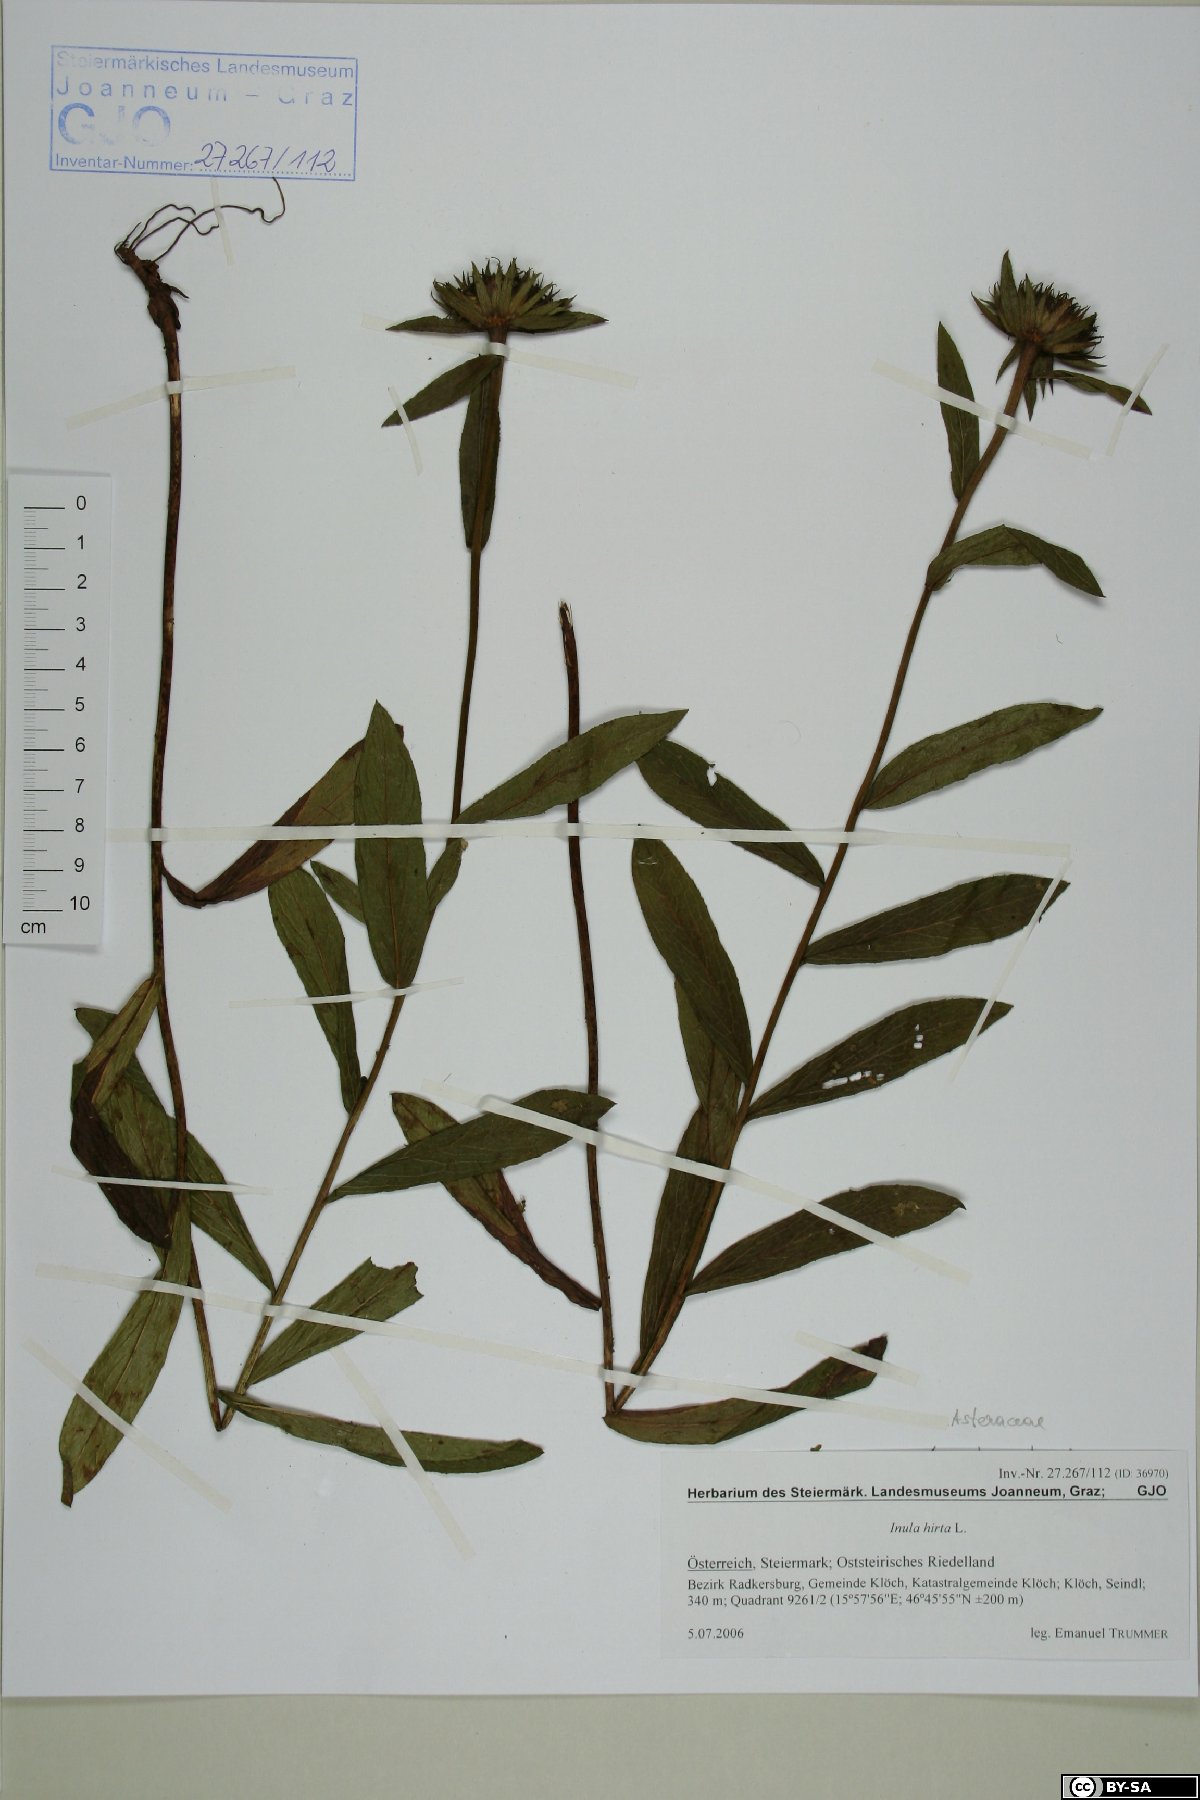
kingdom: Plantae
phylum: Tracheophyta
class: Magnoliopsida
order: Asterales
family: Asteraceae
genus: Pentanema
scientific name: Pentanema hirtum
